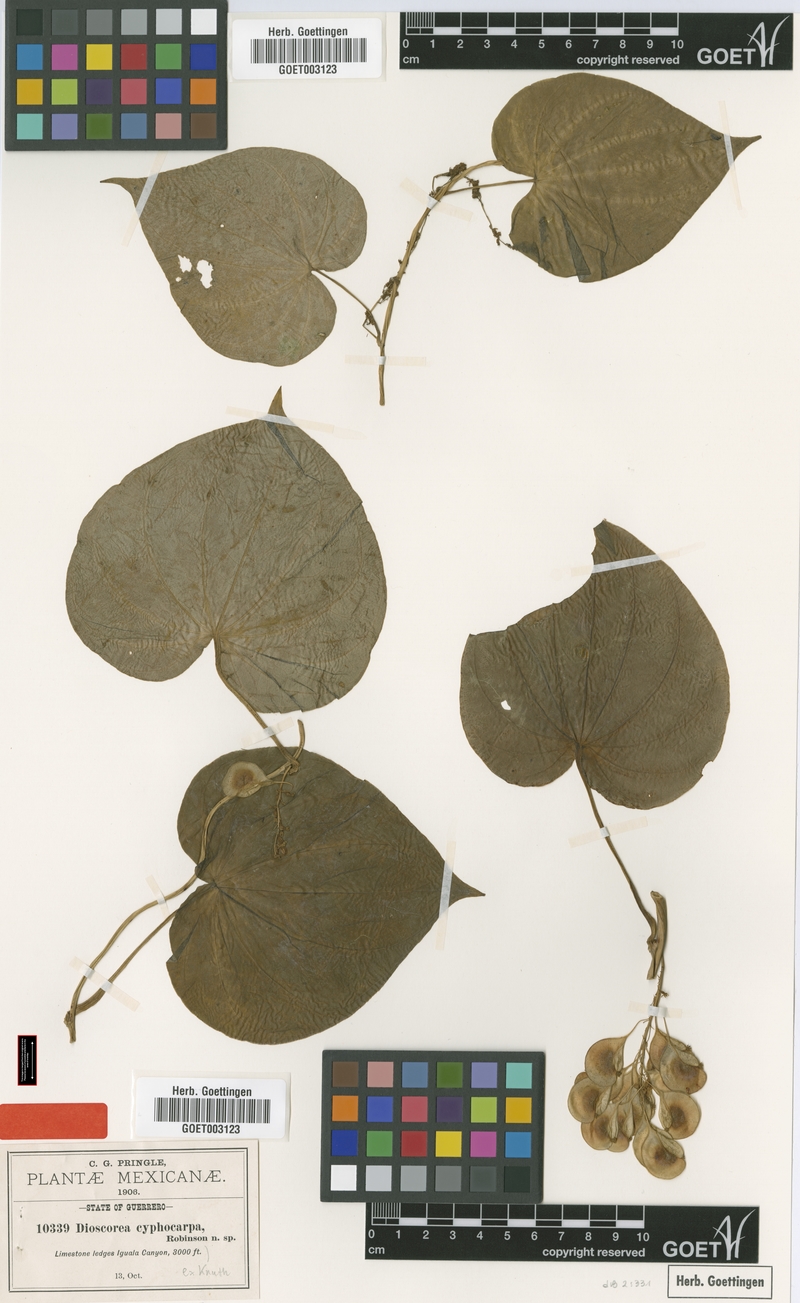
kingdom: Plantae
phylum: Tracheophyta
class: Liliopsida
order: Dioscoreales
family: Dioscoreaceae
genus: Dioscorea
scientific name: Dioscorea cyphocarpa
